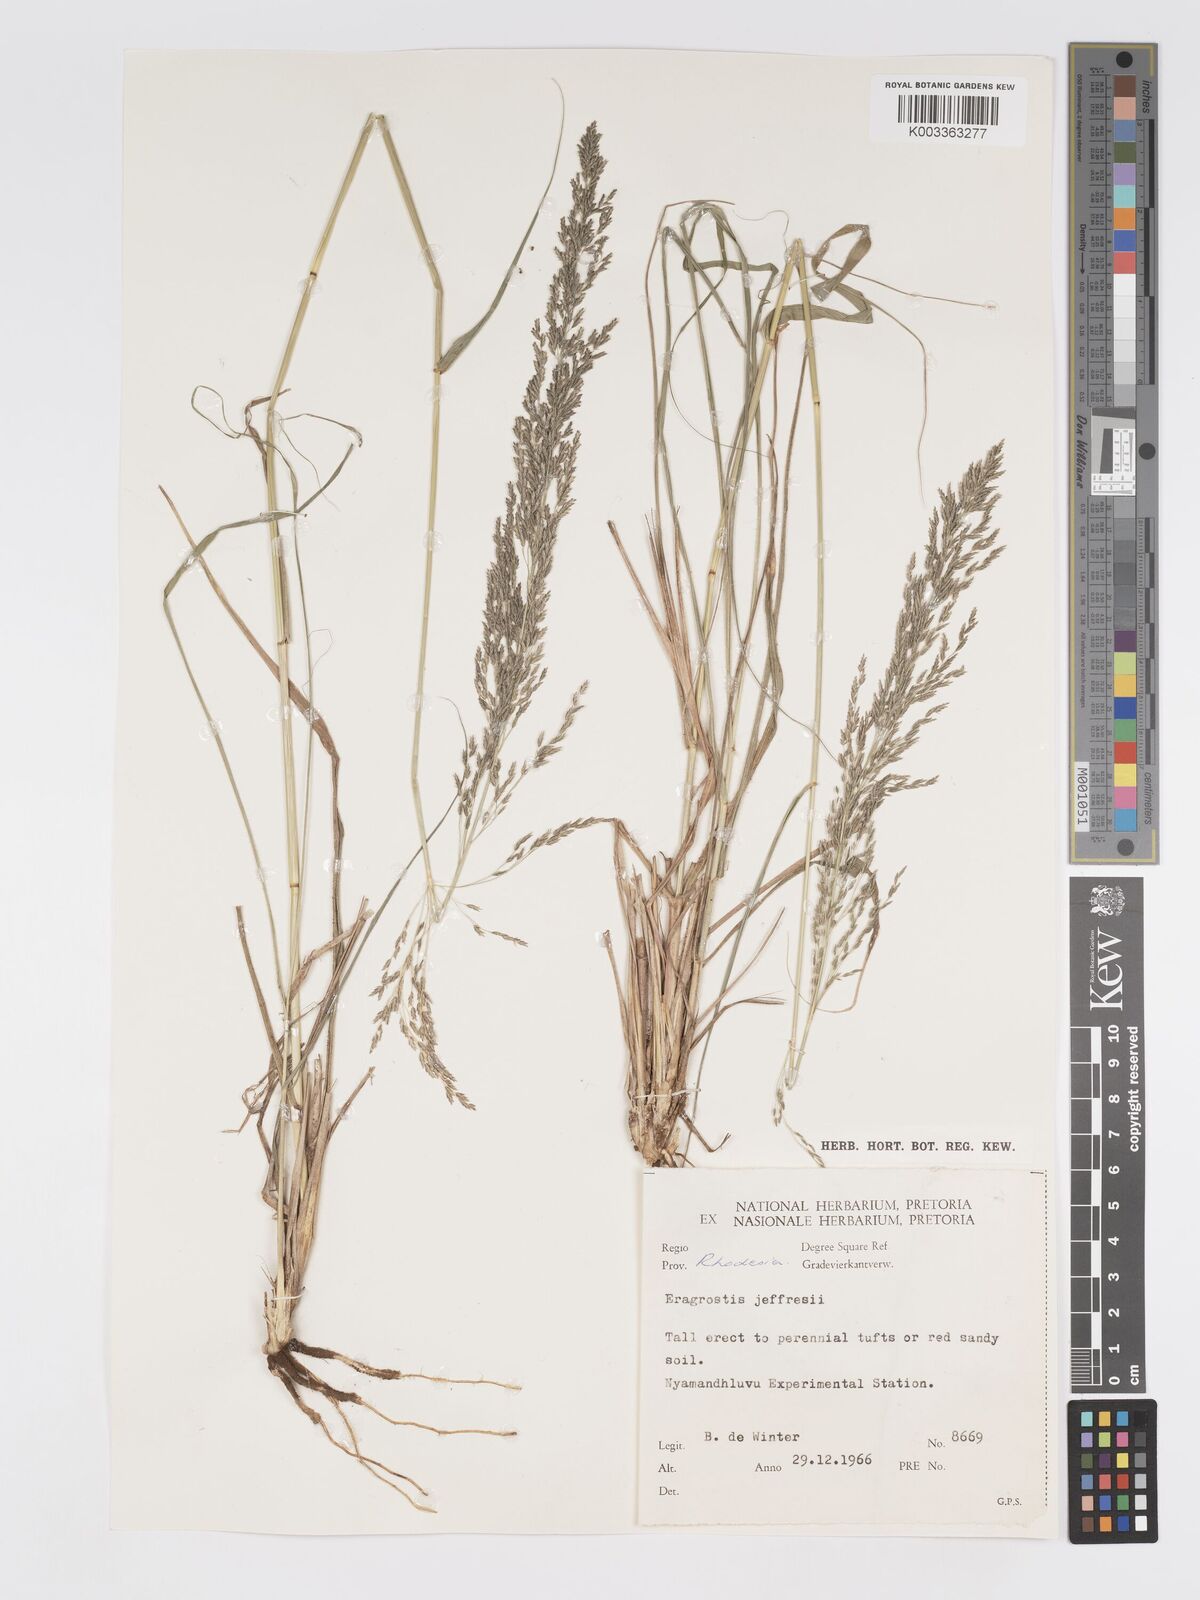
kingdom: Plantae
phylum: Tracheophyta
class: Liliopsida
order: Poales
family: Poaceae
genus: Eragrostis
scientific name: Eragrostis curvula
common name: African love-grass
